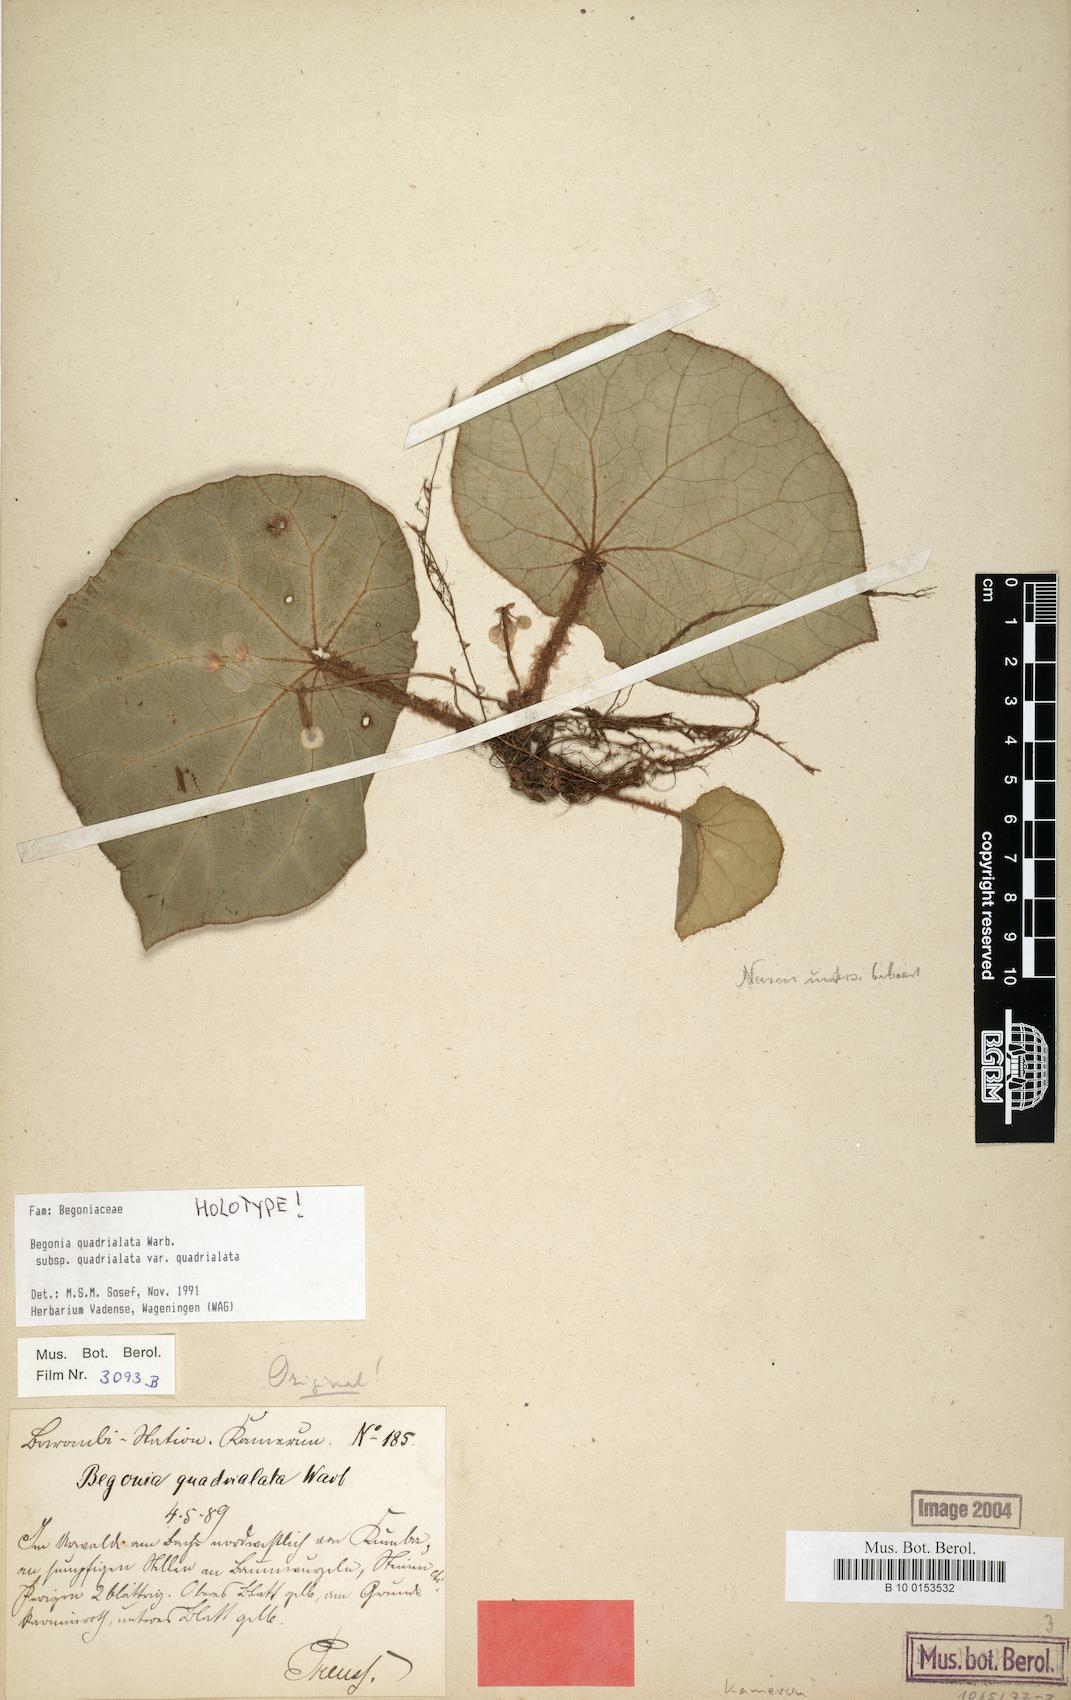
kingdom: Plantae
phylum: Tracheophyta
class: Magnoliopsida
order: Cucurbitales
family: Begoniaceae
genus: Begonia
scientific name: Begonia quadrialata
